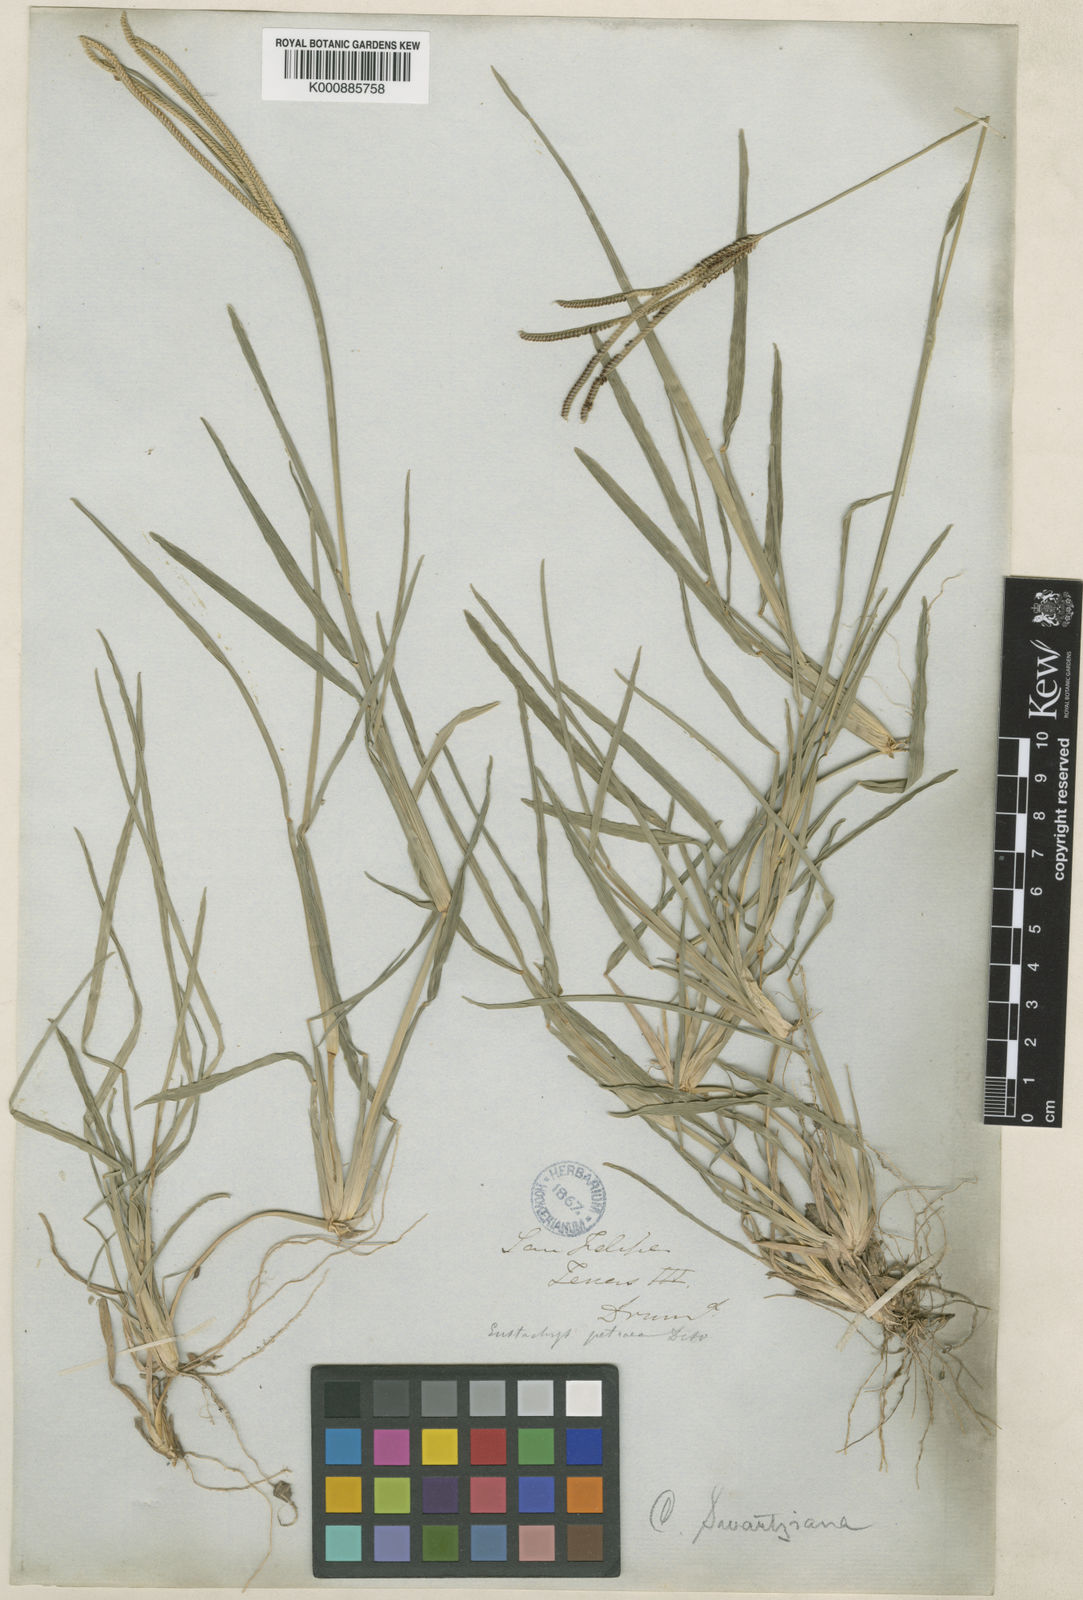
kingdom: Plantae
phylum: Tracheophyta
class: Liliopsida
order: Poales
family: Poaceae
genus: Eustachys
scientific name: Eustachys petraea
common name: Pinewoods fingergrass
